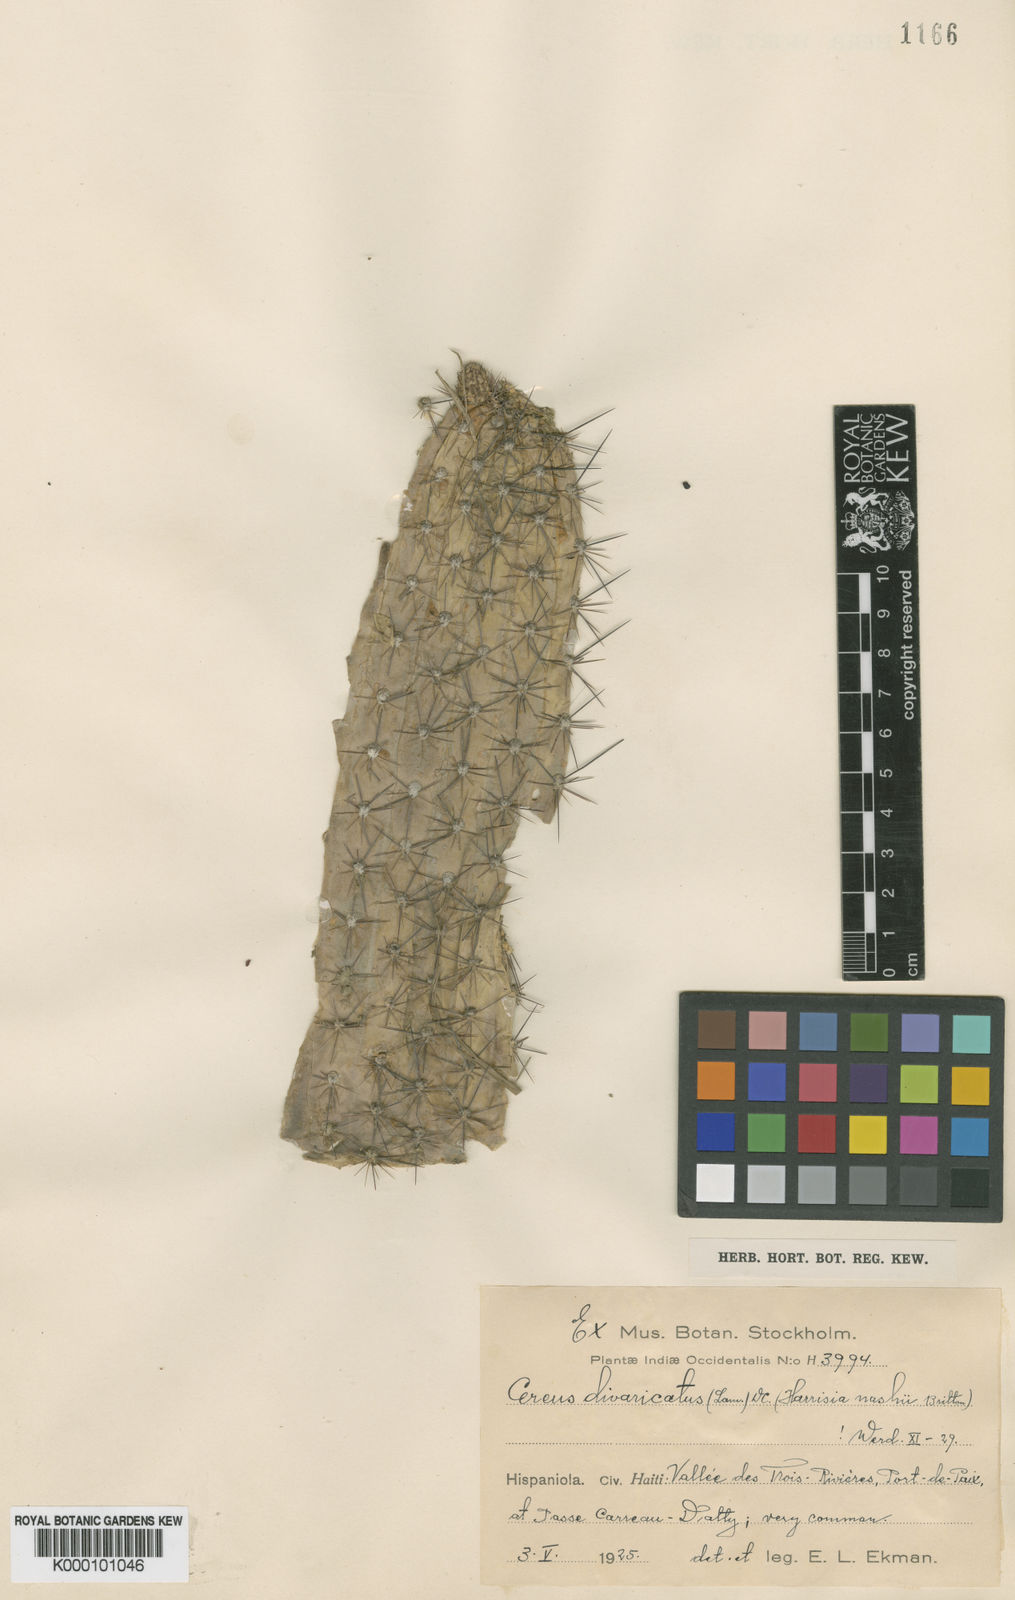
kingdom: Plantae
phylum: Tracheophyta
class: Magnoliopsida
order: Caryophyllales
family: Cactaceae
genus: Harrisia
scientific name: Harrisia divaricata
